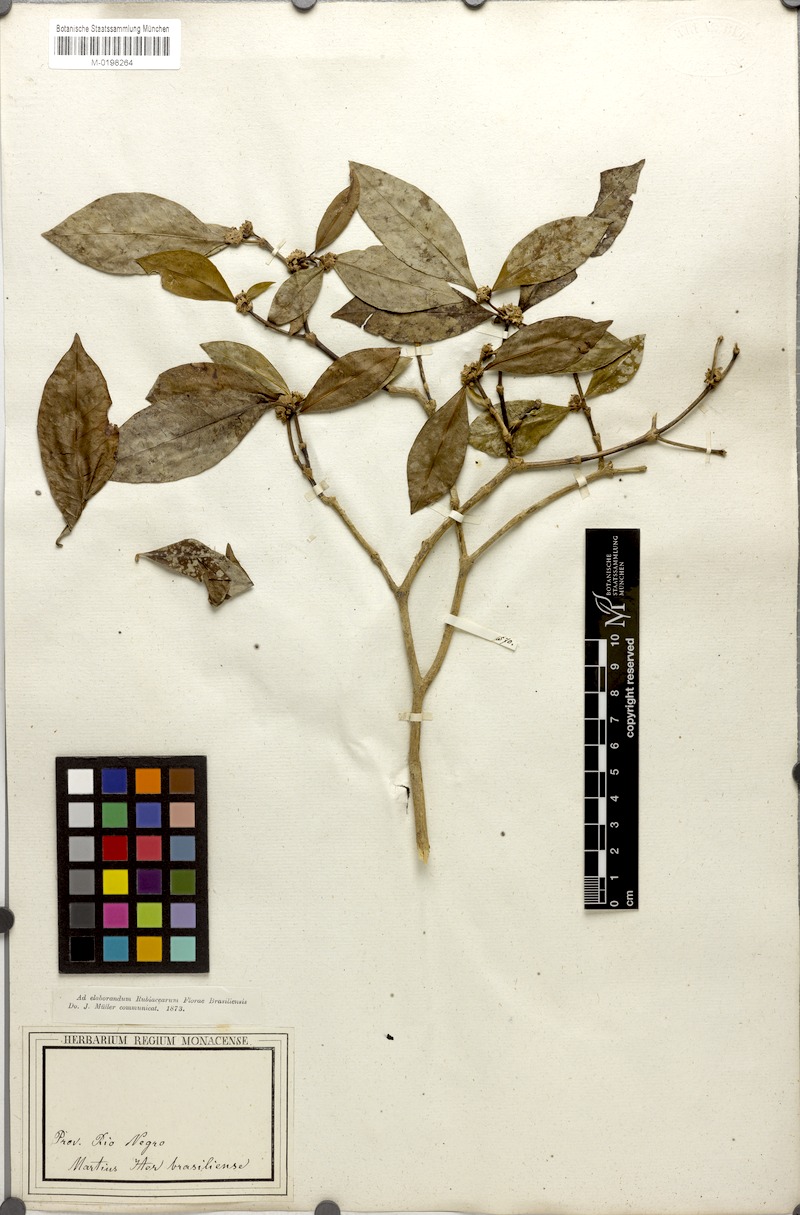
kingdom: Plantae
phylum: Tracheophyta
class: Magnoliopsida
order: Gentianales
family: Rubiaceae
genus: Psychotria
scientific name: Psychotria Mapouria japurensis
